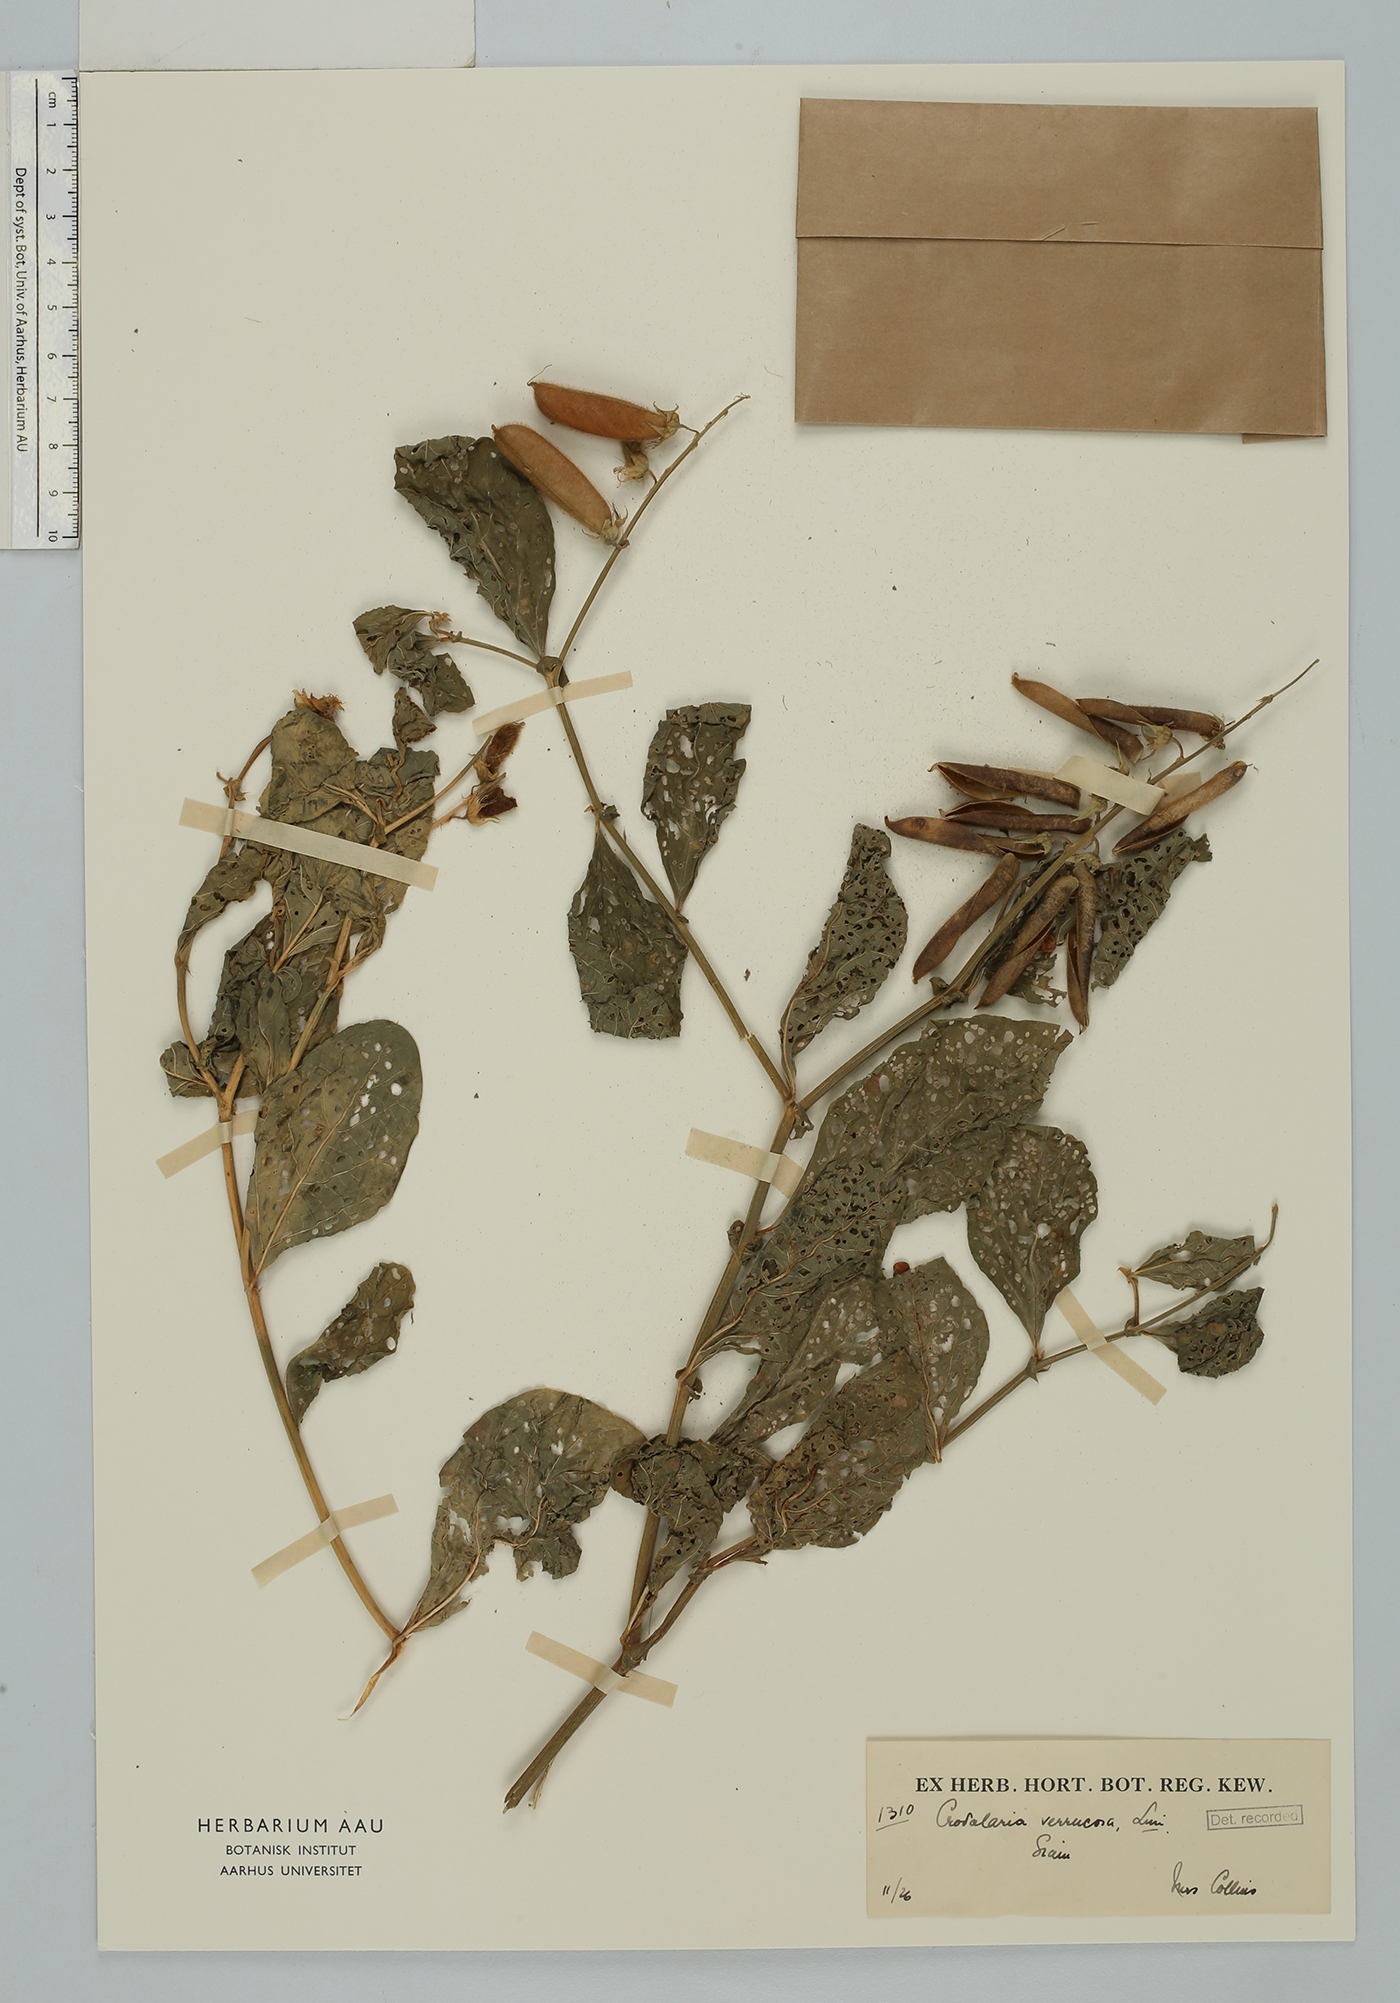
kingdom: Plantae
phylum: Tracheophyta
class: Magnoliopsida
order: Fabales
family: Fabaceae
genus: Crotalaria
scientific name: Crotalaria verrucosa
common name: Blue rattlesnake
